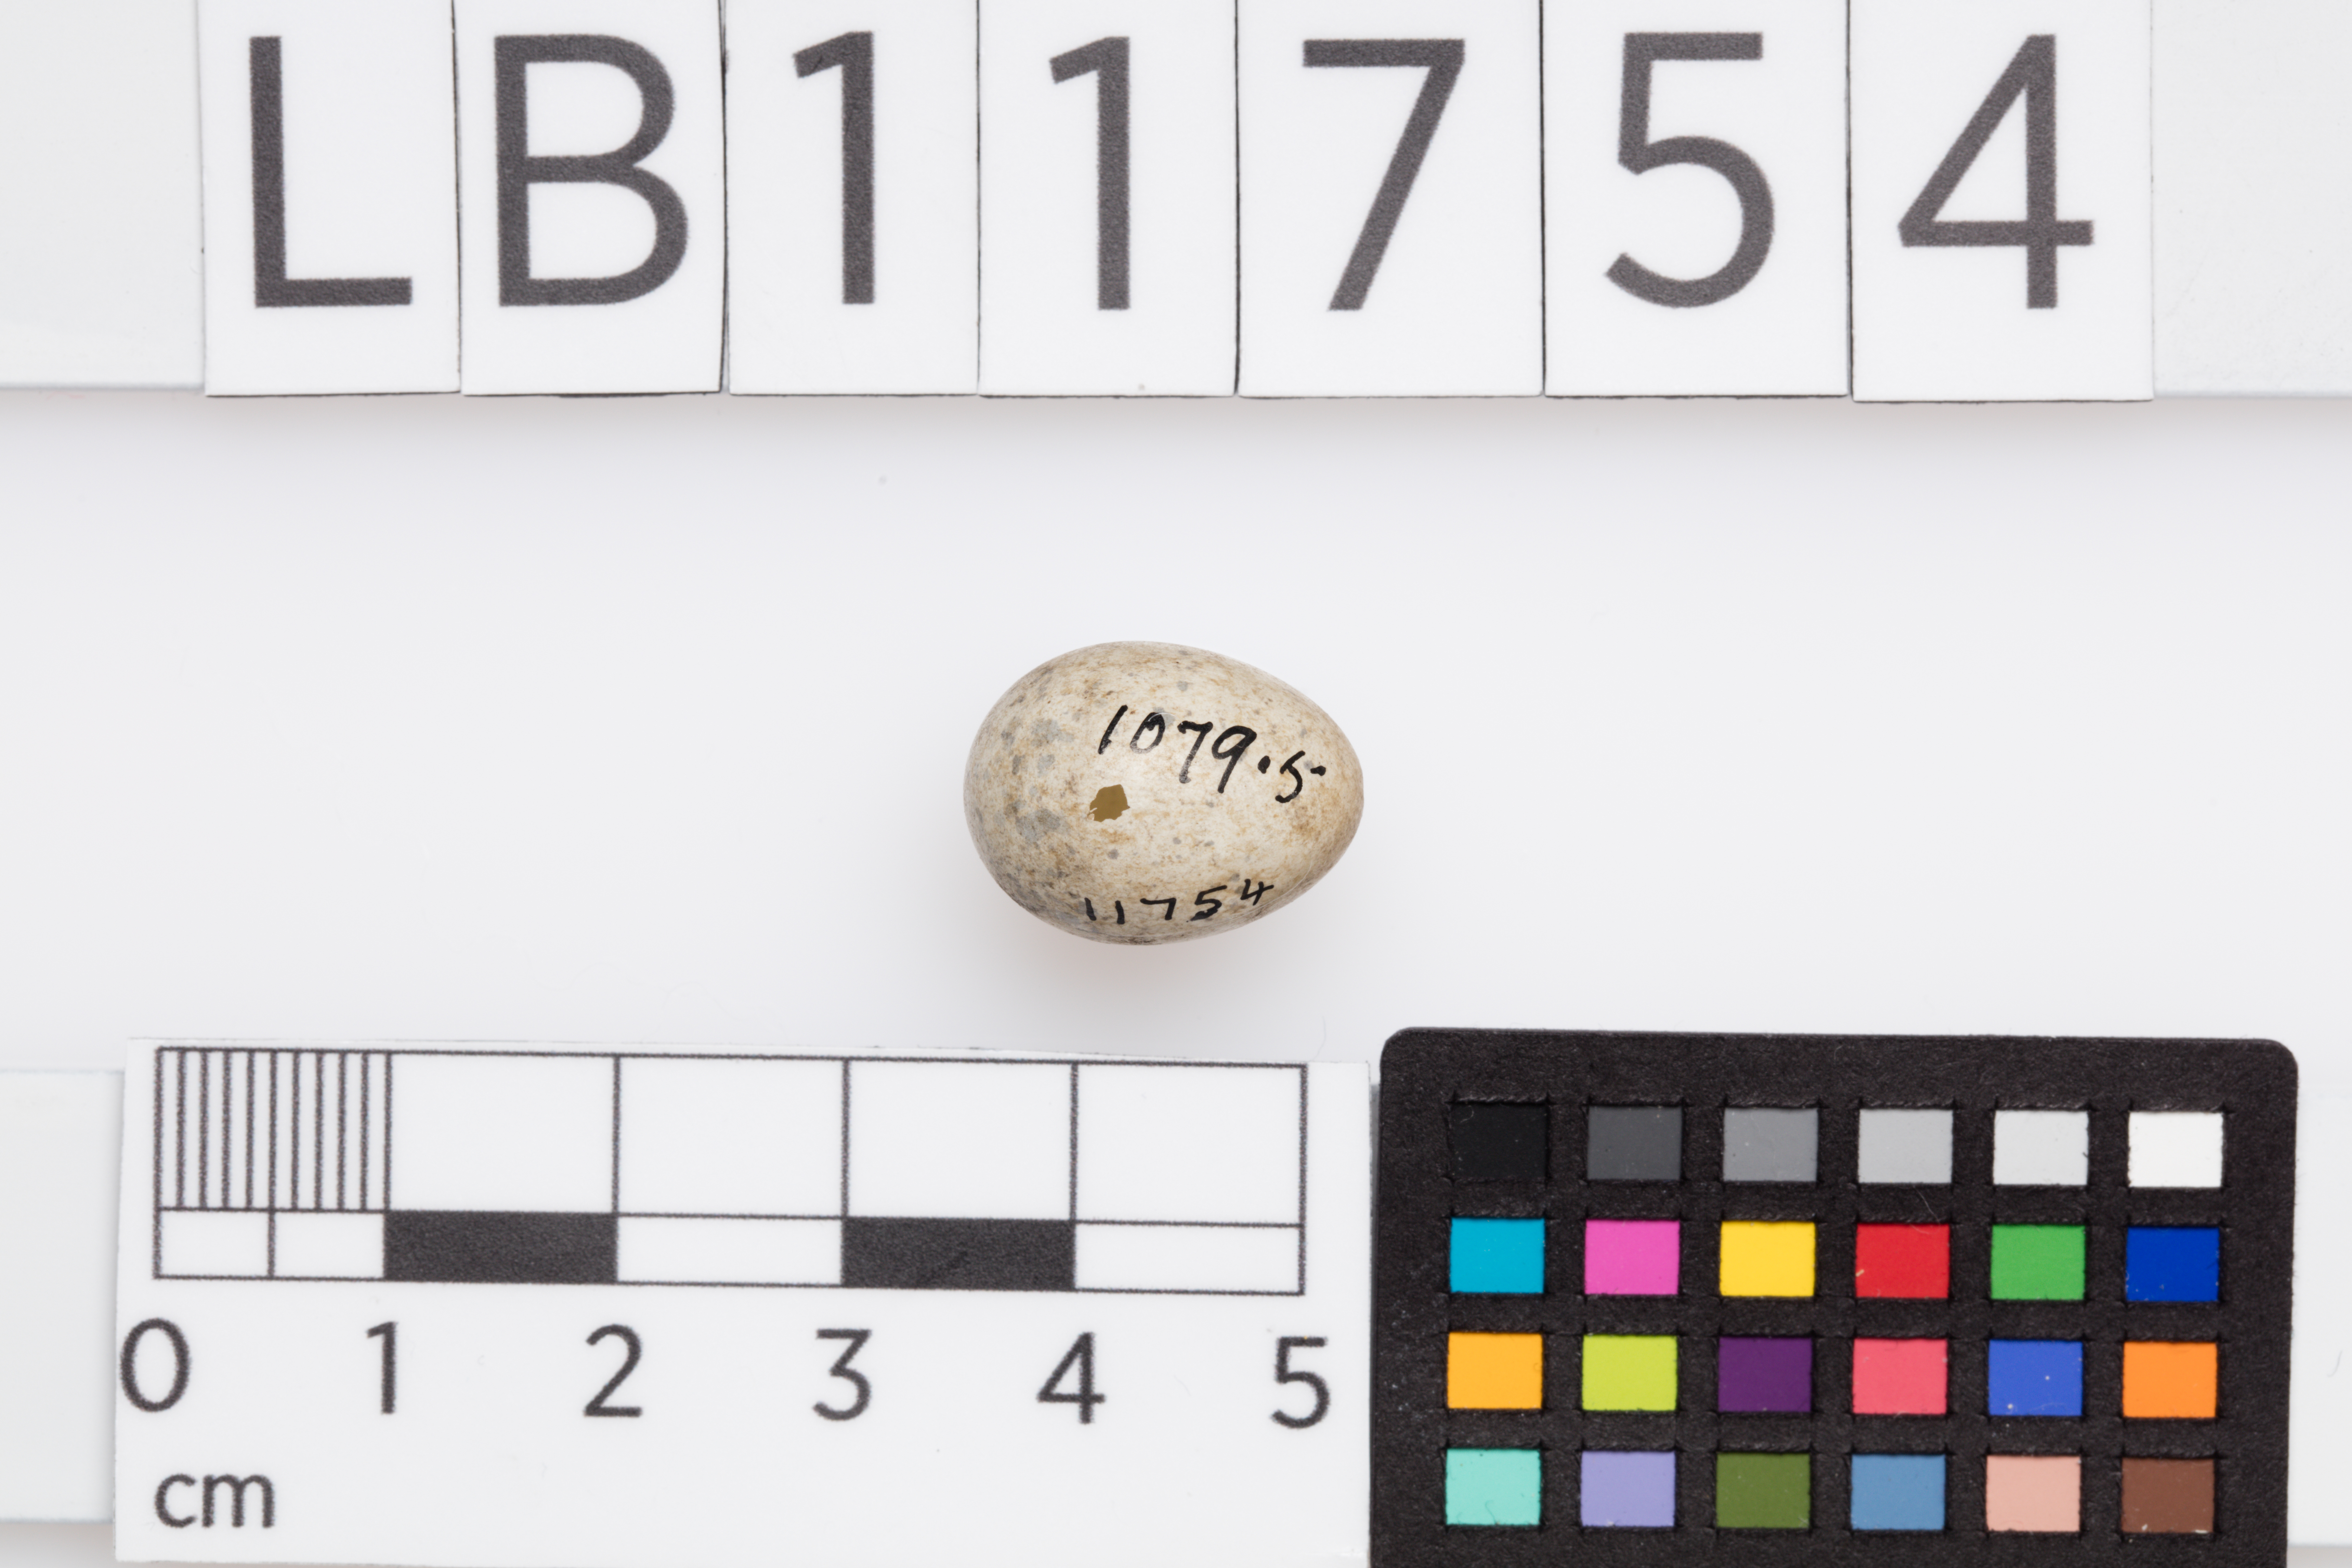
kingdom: Animalia
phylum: Chordata
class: Aves
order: Passeriformes
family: Sylviidae
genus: Sylvia
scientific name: Sylvia communis
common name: Common whitethroat
